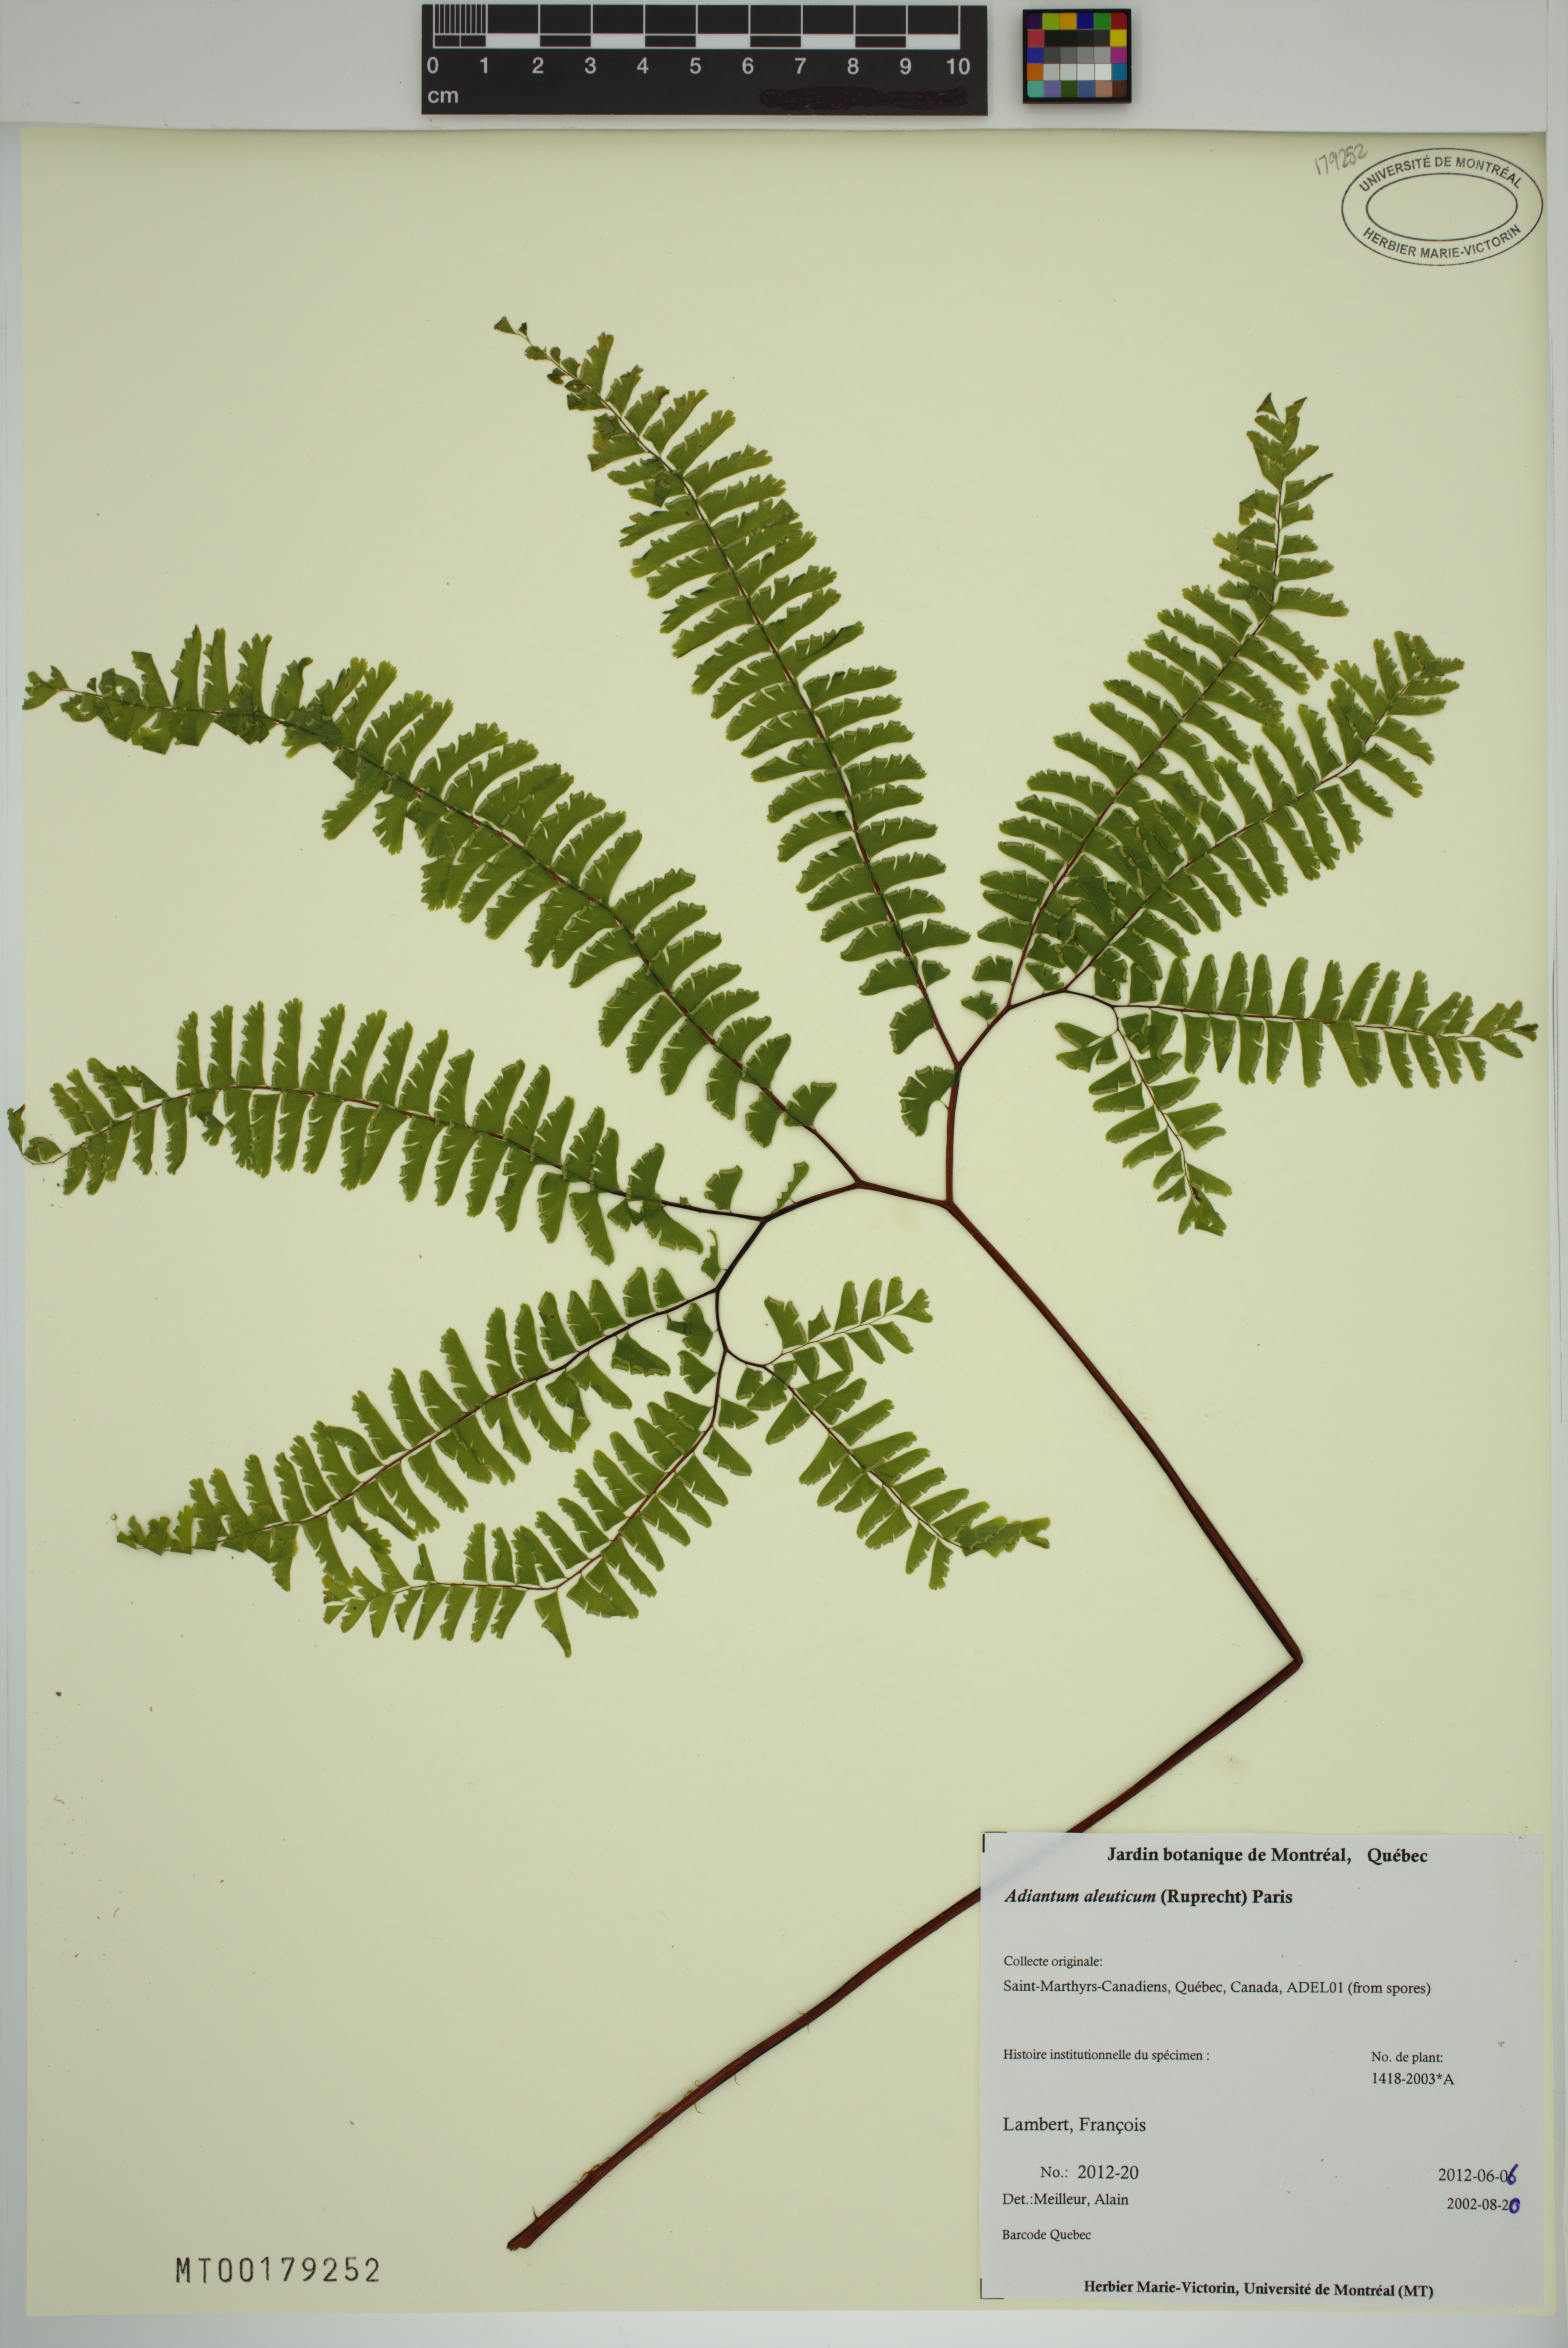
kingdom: Plantae
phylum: Tracheophyta
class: Polypodiopsida
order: Polypodiales
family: Pteridaceae
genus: Adiantum
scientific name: Adiantum aleuticum
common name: Aleutian maidenhair fern
